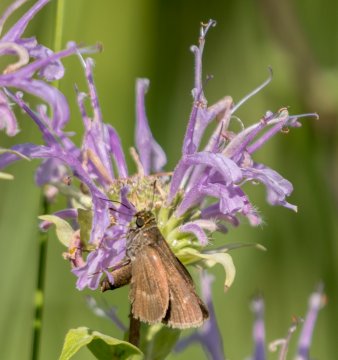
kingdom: Animalia
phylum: Arthropoda
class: Insecta
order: Lepidoptera
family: Hesperiidae
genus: Polites
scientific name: Polites egeremet
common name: Northern Broken-Dash
